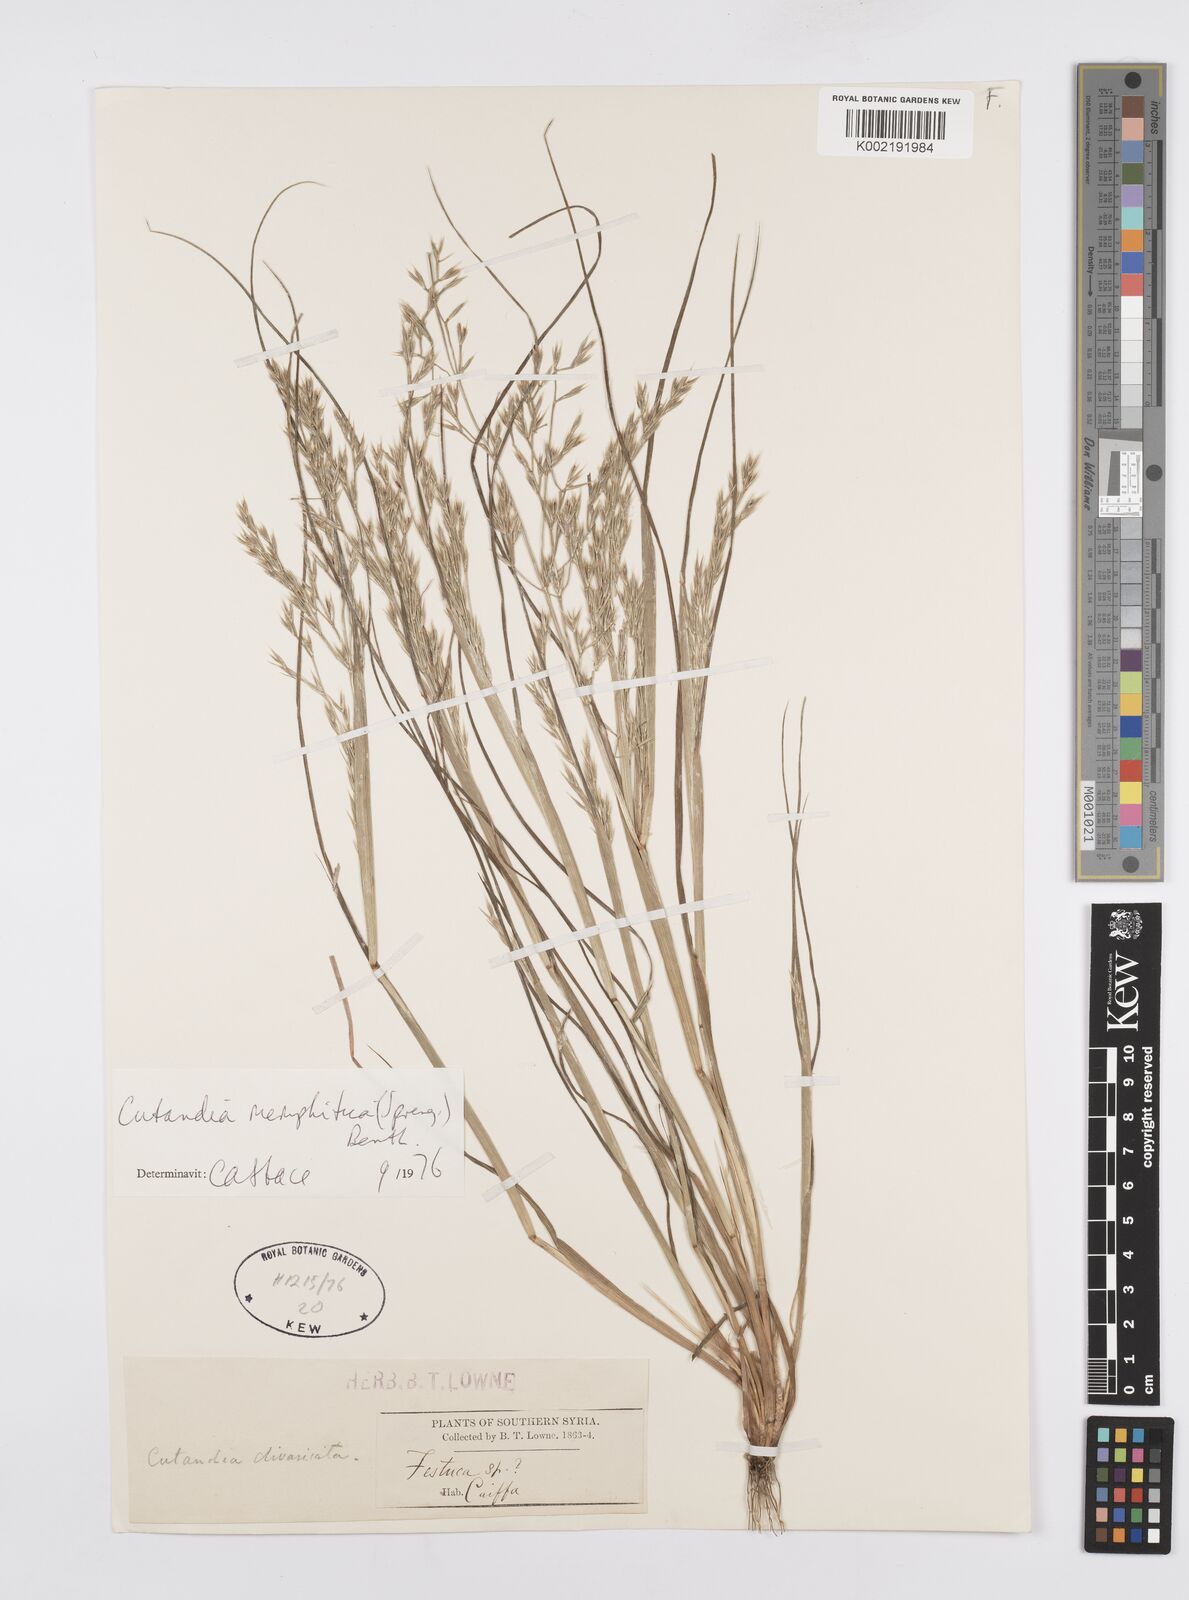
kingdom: Plantae
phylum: Tracheophyta
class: Liliopsida
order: Poales
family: Poaceae
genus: Cutandia
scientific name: Cutandia memphitica
